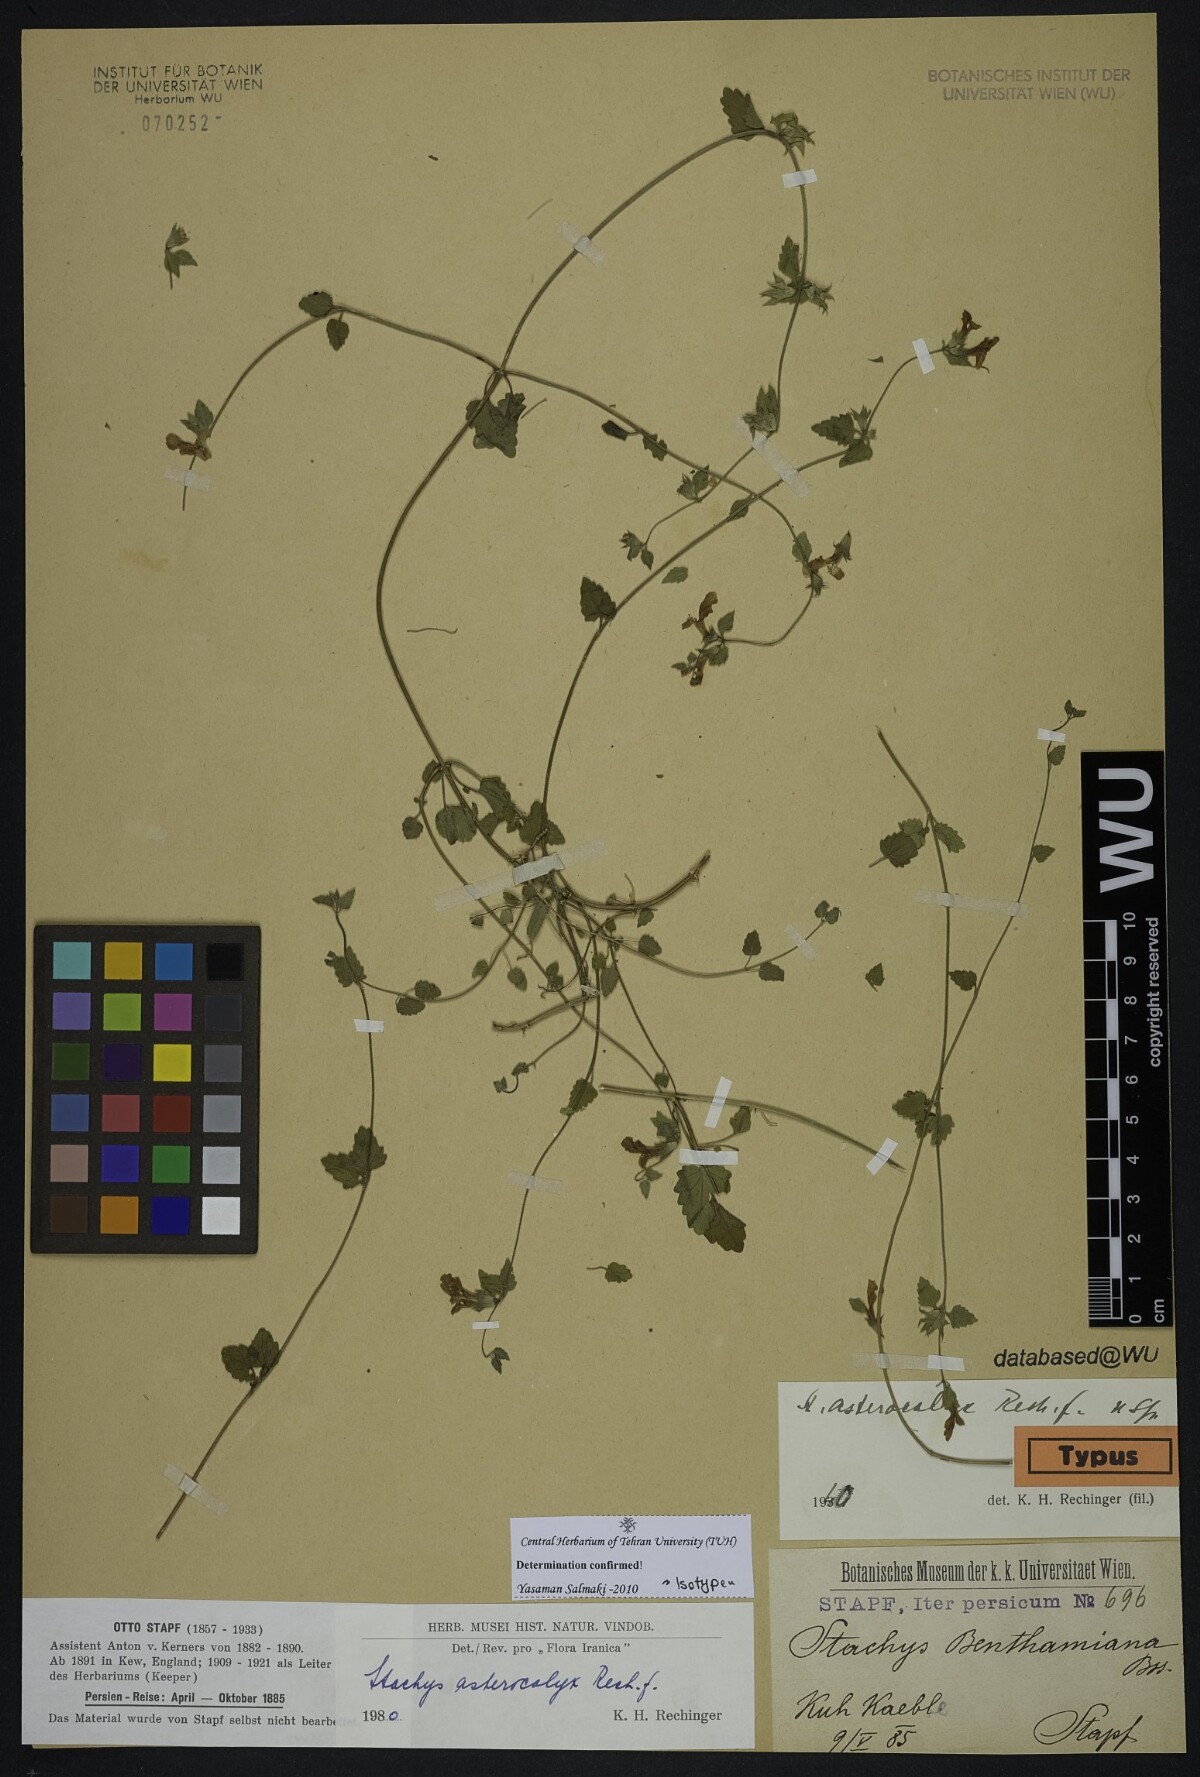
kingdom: Plantae
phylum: Tracheophyta
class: Magnoliopsida
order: Lamiales
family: Lamiaceae
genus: Stachys
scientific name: Stachys kurdica
